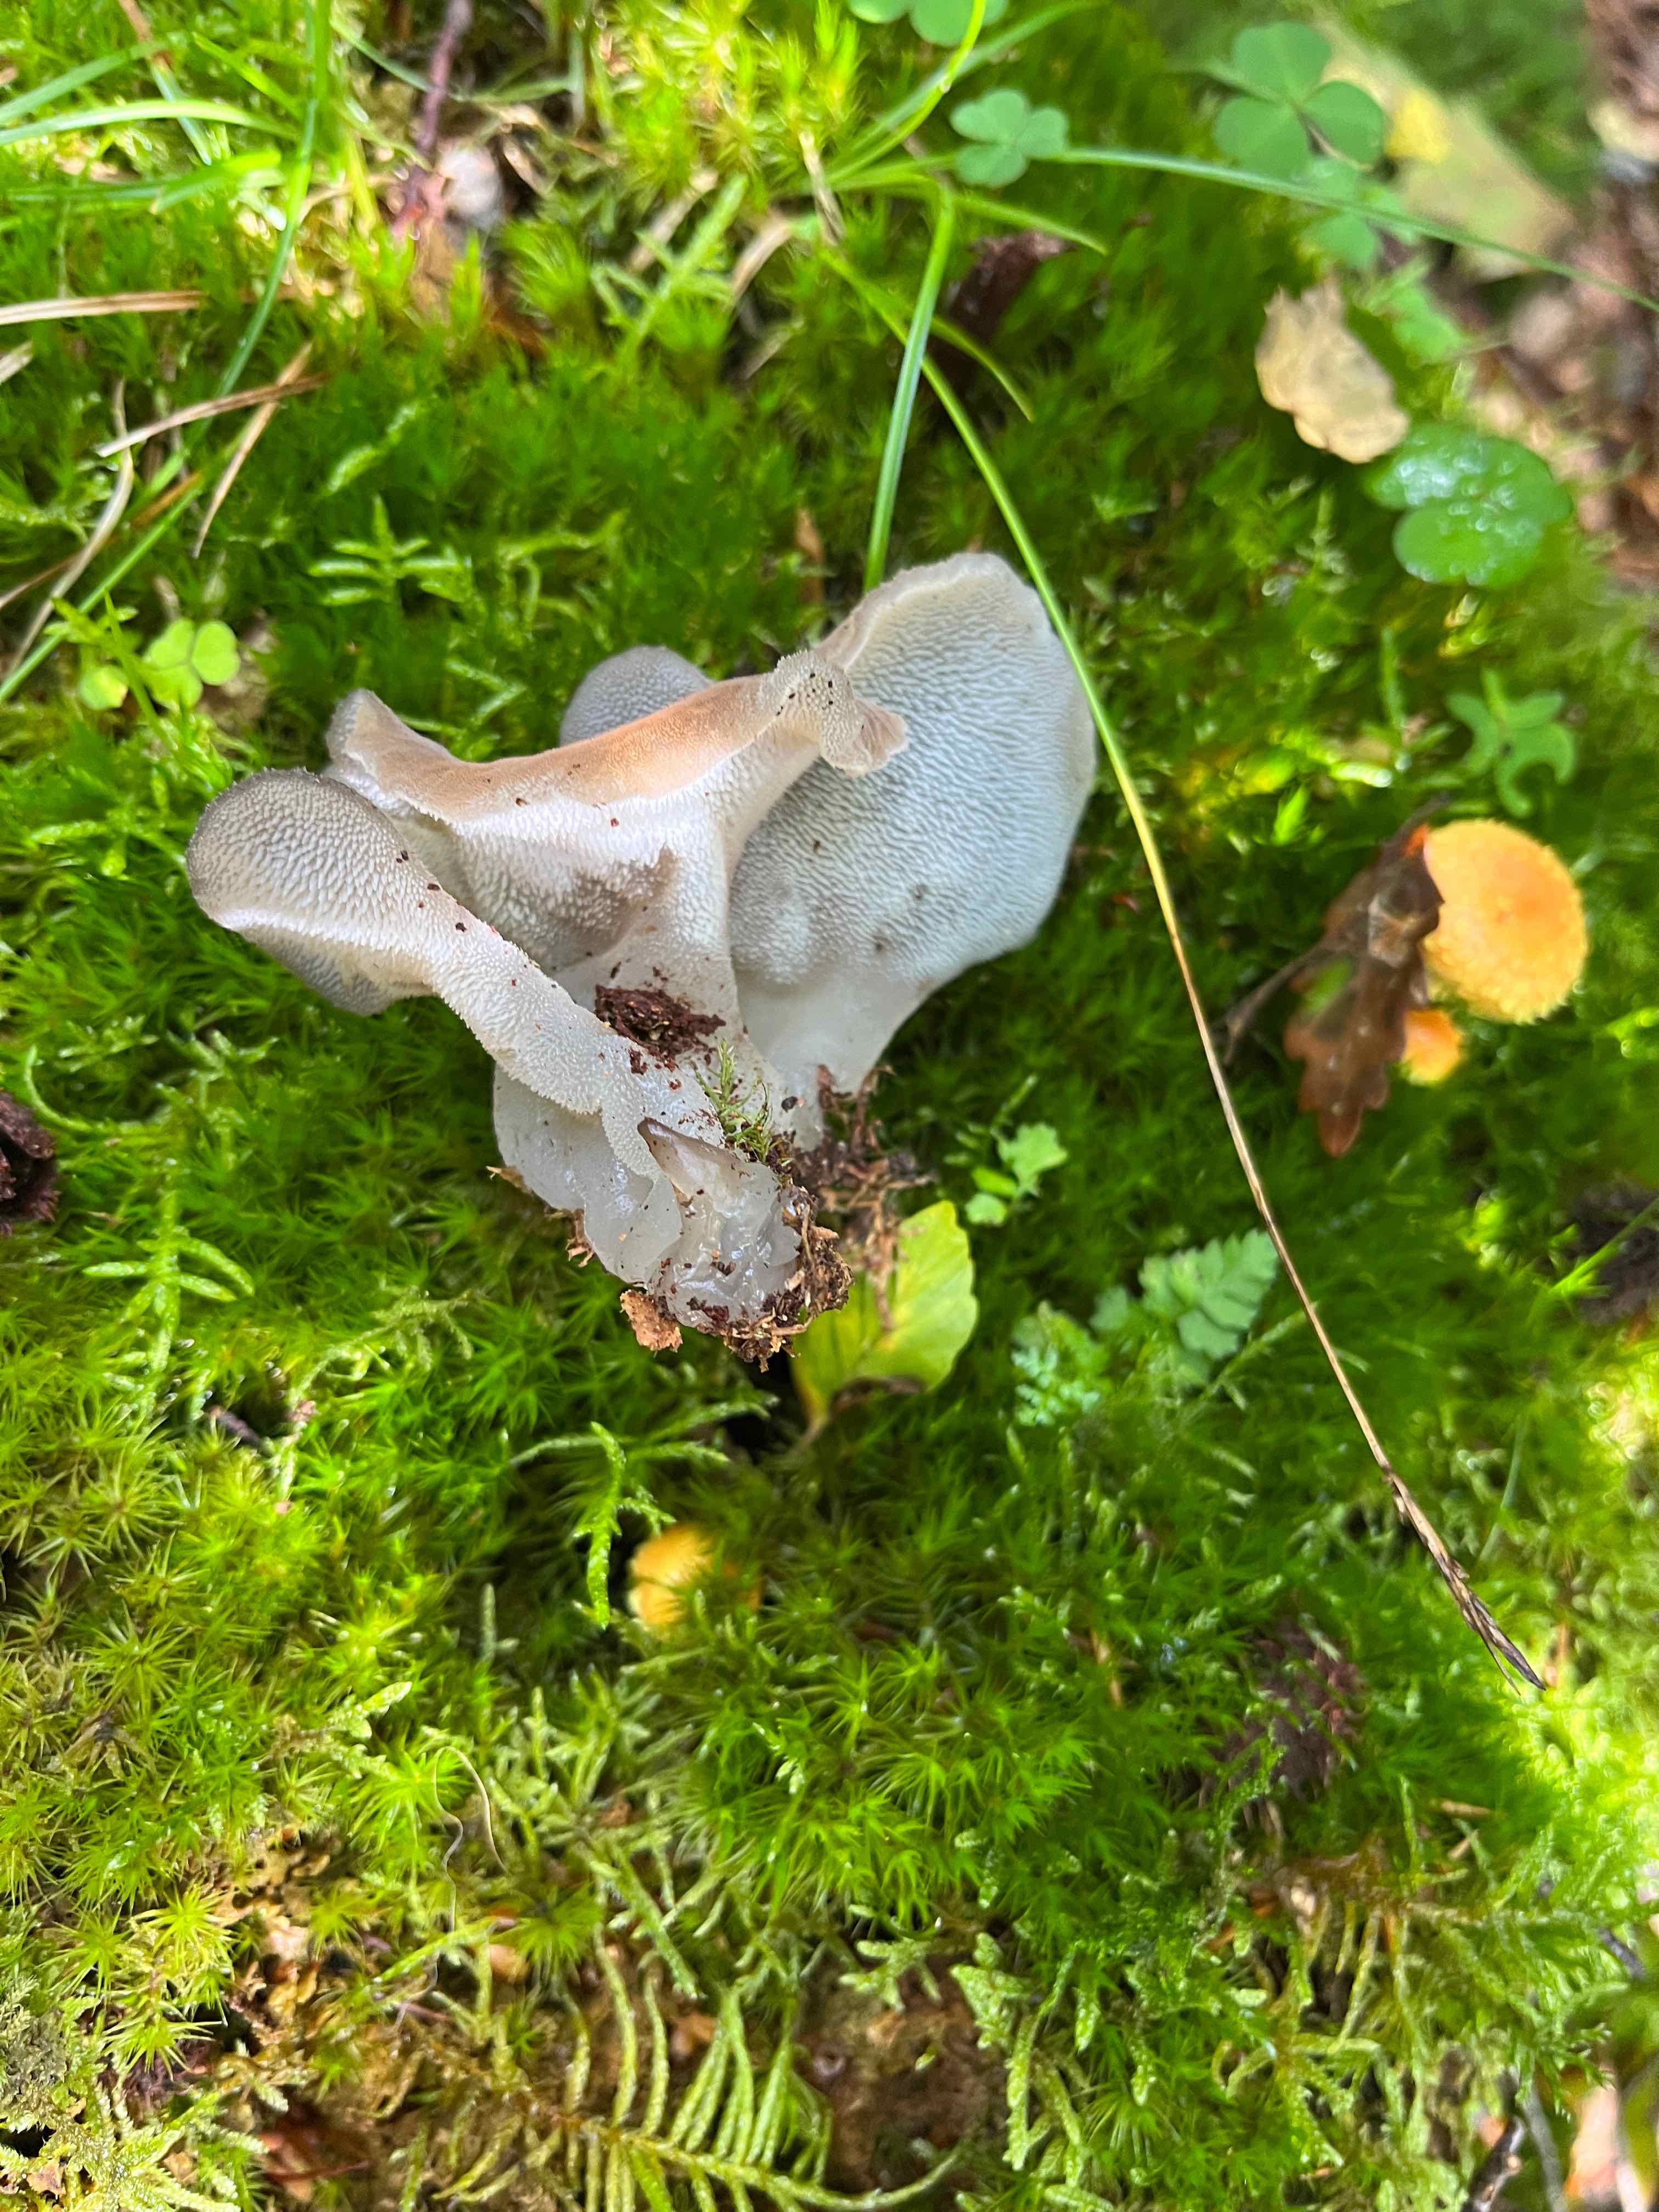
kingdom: Fungi
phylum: Basidiomycota
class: Agaricomycetes
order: Auriculariales
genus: Pseudohydnum
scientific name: Pseudohydnum gelatinosum
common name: bævretand
